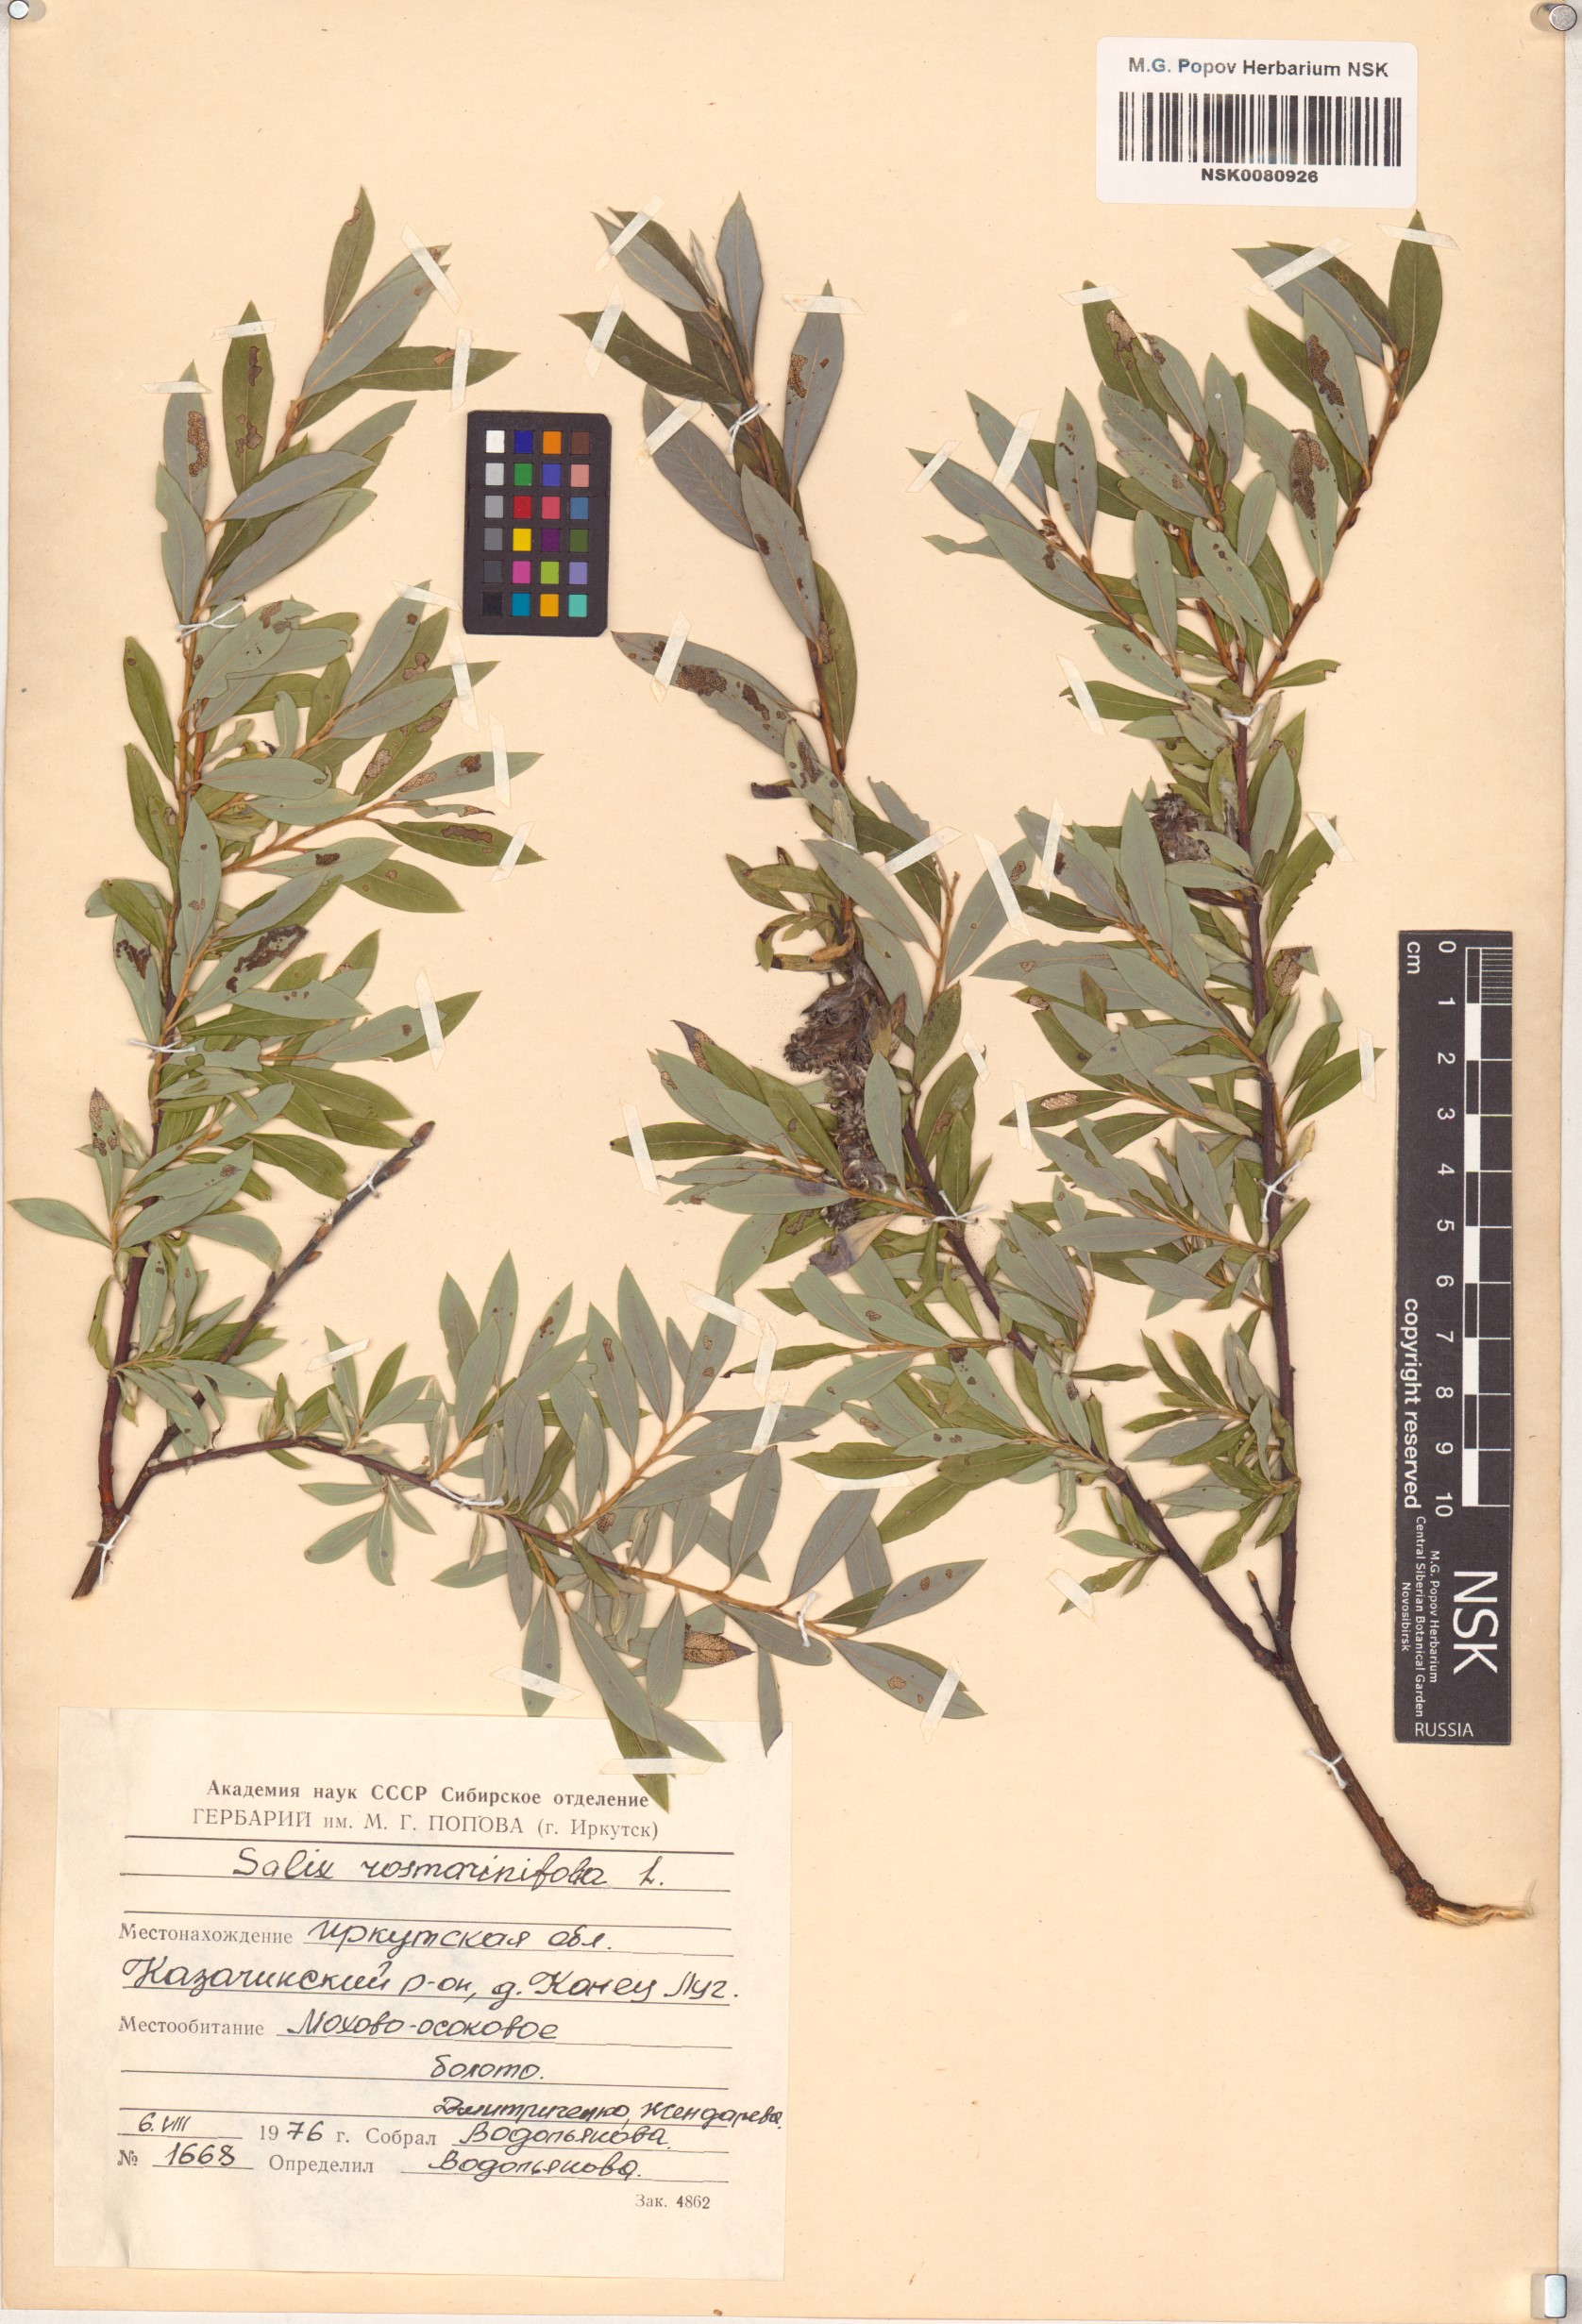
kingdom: Plantae
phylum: Tracheophyta
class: Magnoliopsida
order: Malpighiales
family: Salicaceae
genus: Salix
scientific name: Salix rosmarinifolia
